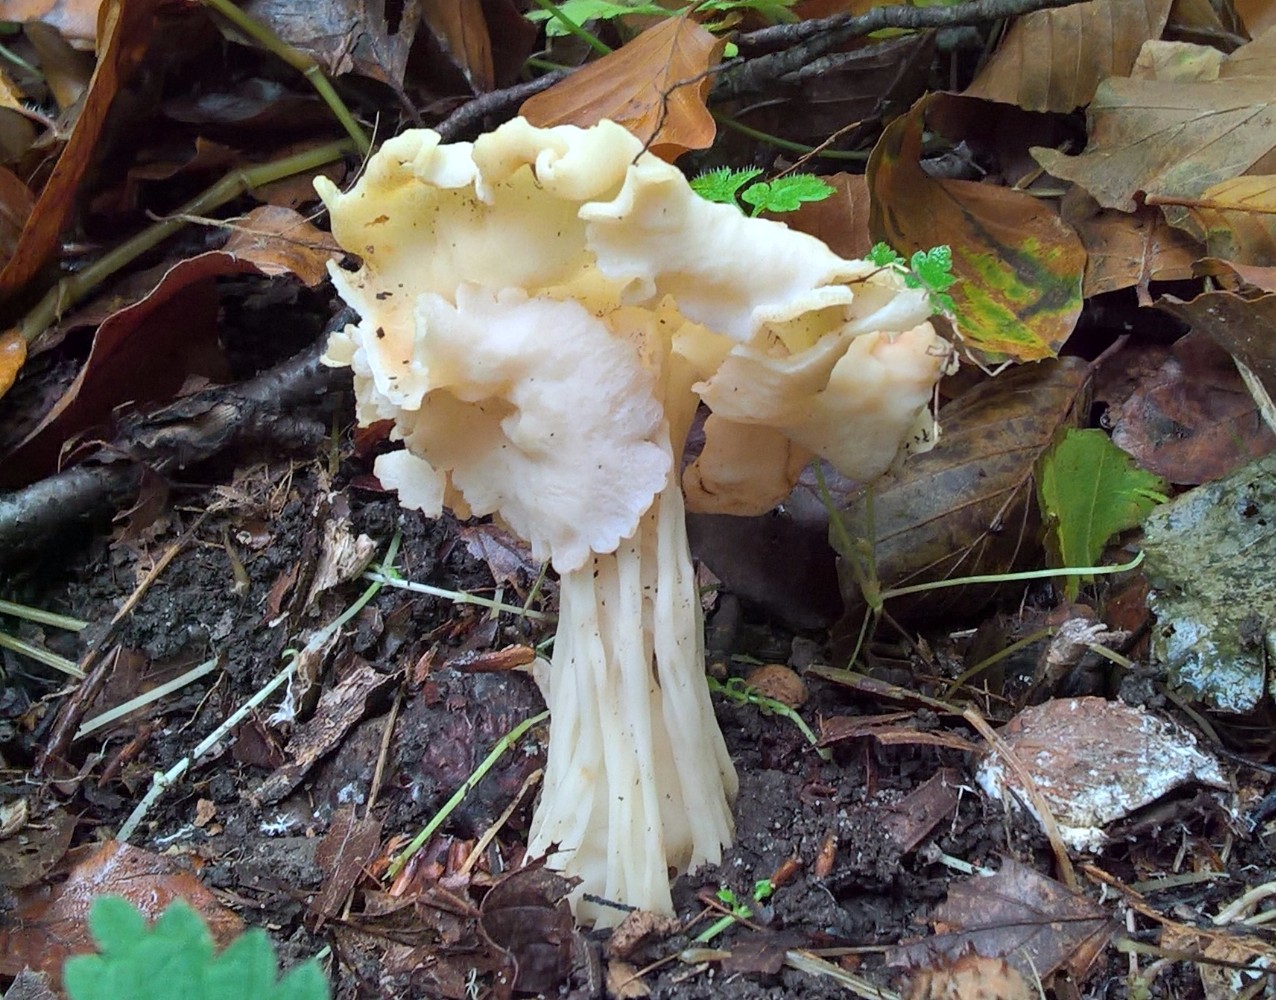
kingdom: Fungi
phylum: Ascomycota
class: Pezizomycetes
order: Pezizales
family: Helvellaceae
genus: Helvella
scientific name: Helvella crispa
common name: kruset foldhat
